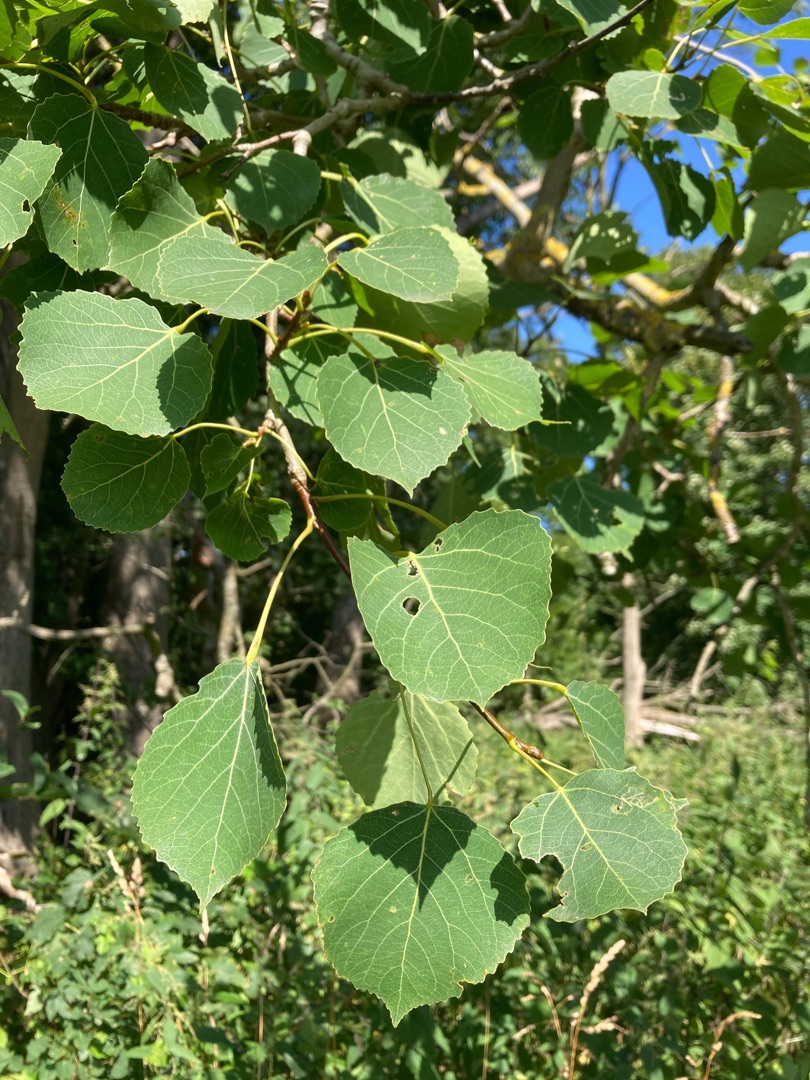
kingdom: Plantae
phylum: Tracheophyta
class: Magnoliopsida
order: Malpighiales
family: Salicaceae
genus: Populus
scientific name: Populus wettsteinii
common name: Hybridasp
